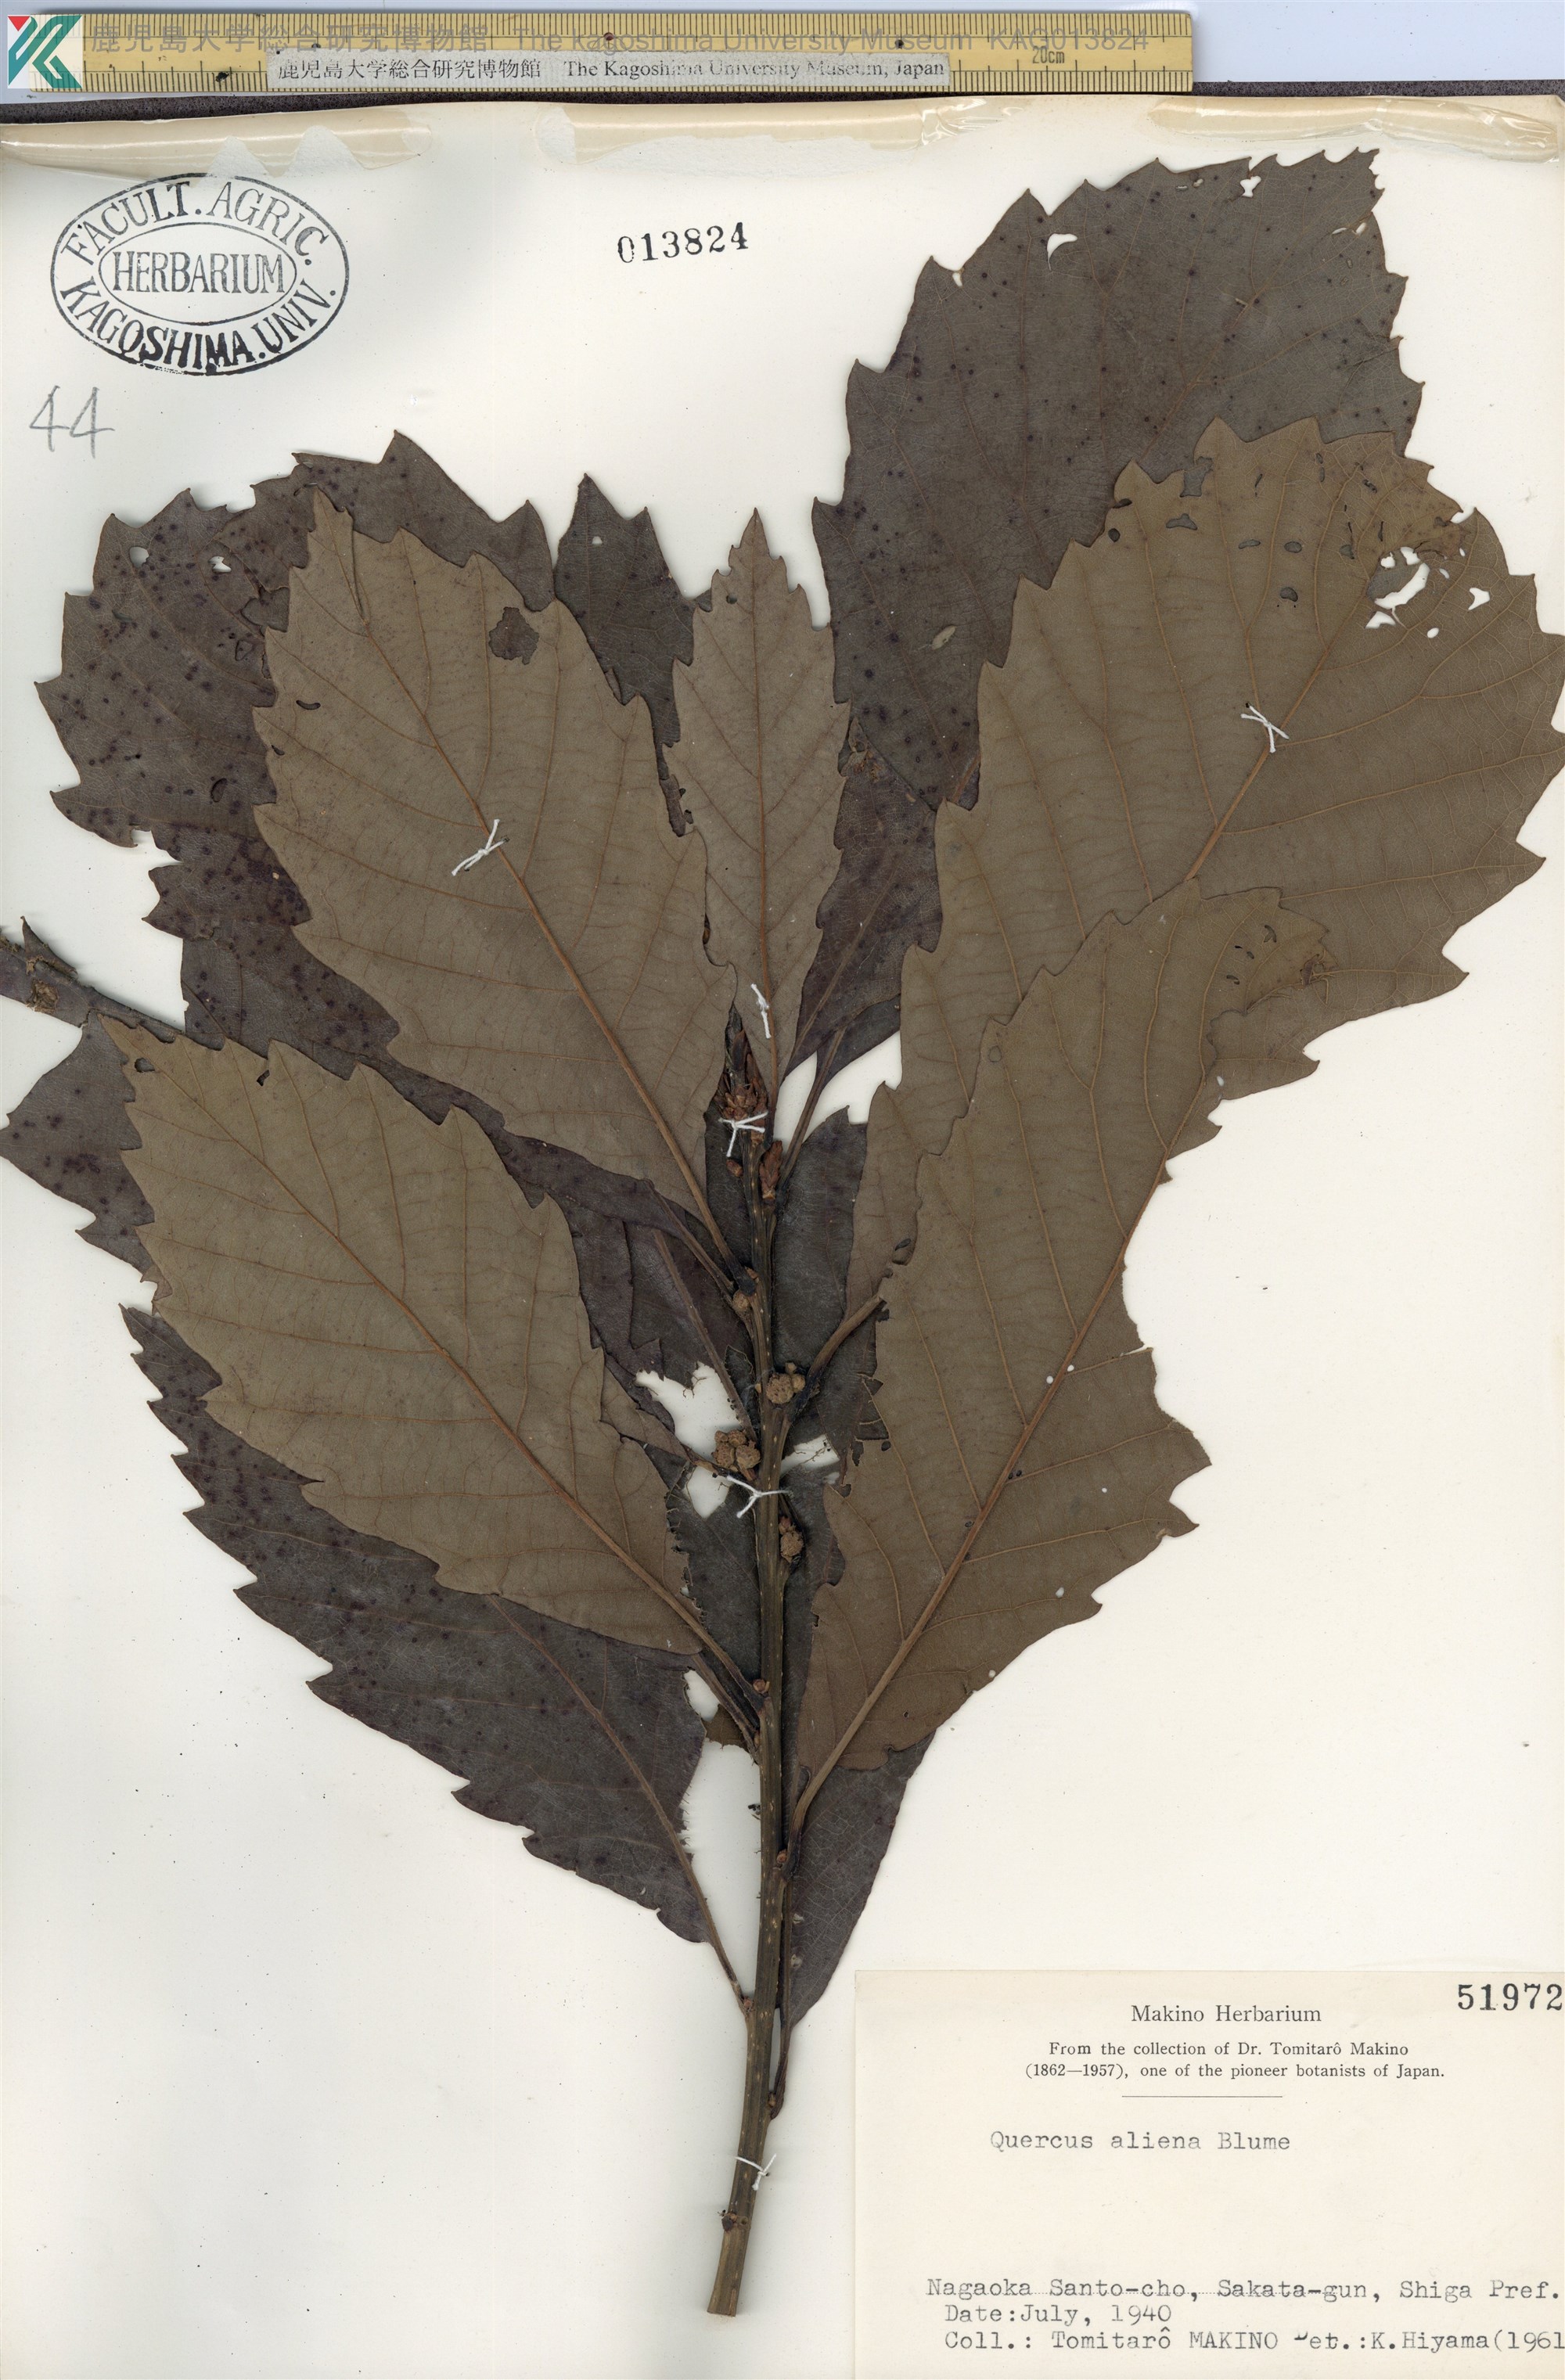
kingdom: Plantae
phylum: Tracheophyta
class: Magnoliopsida
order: Fagales
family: Fagaceae
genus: Quercus
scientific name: Quercus aliena
